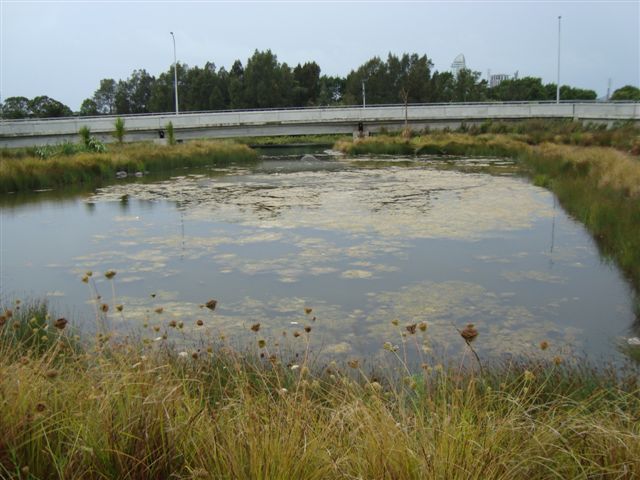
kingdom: Plantae
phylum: Chlorophyta
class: Ulvophyceae
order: Cladophorales
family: Cladophoraceae
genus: Cladophora
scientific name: Cladophora glomerata
